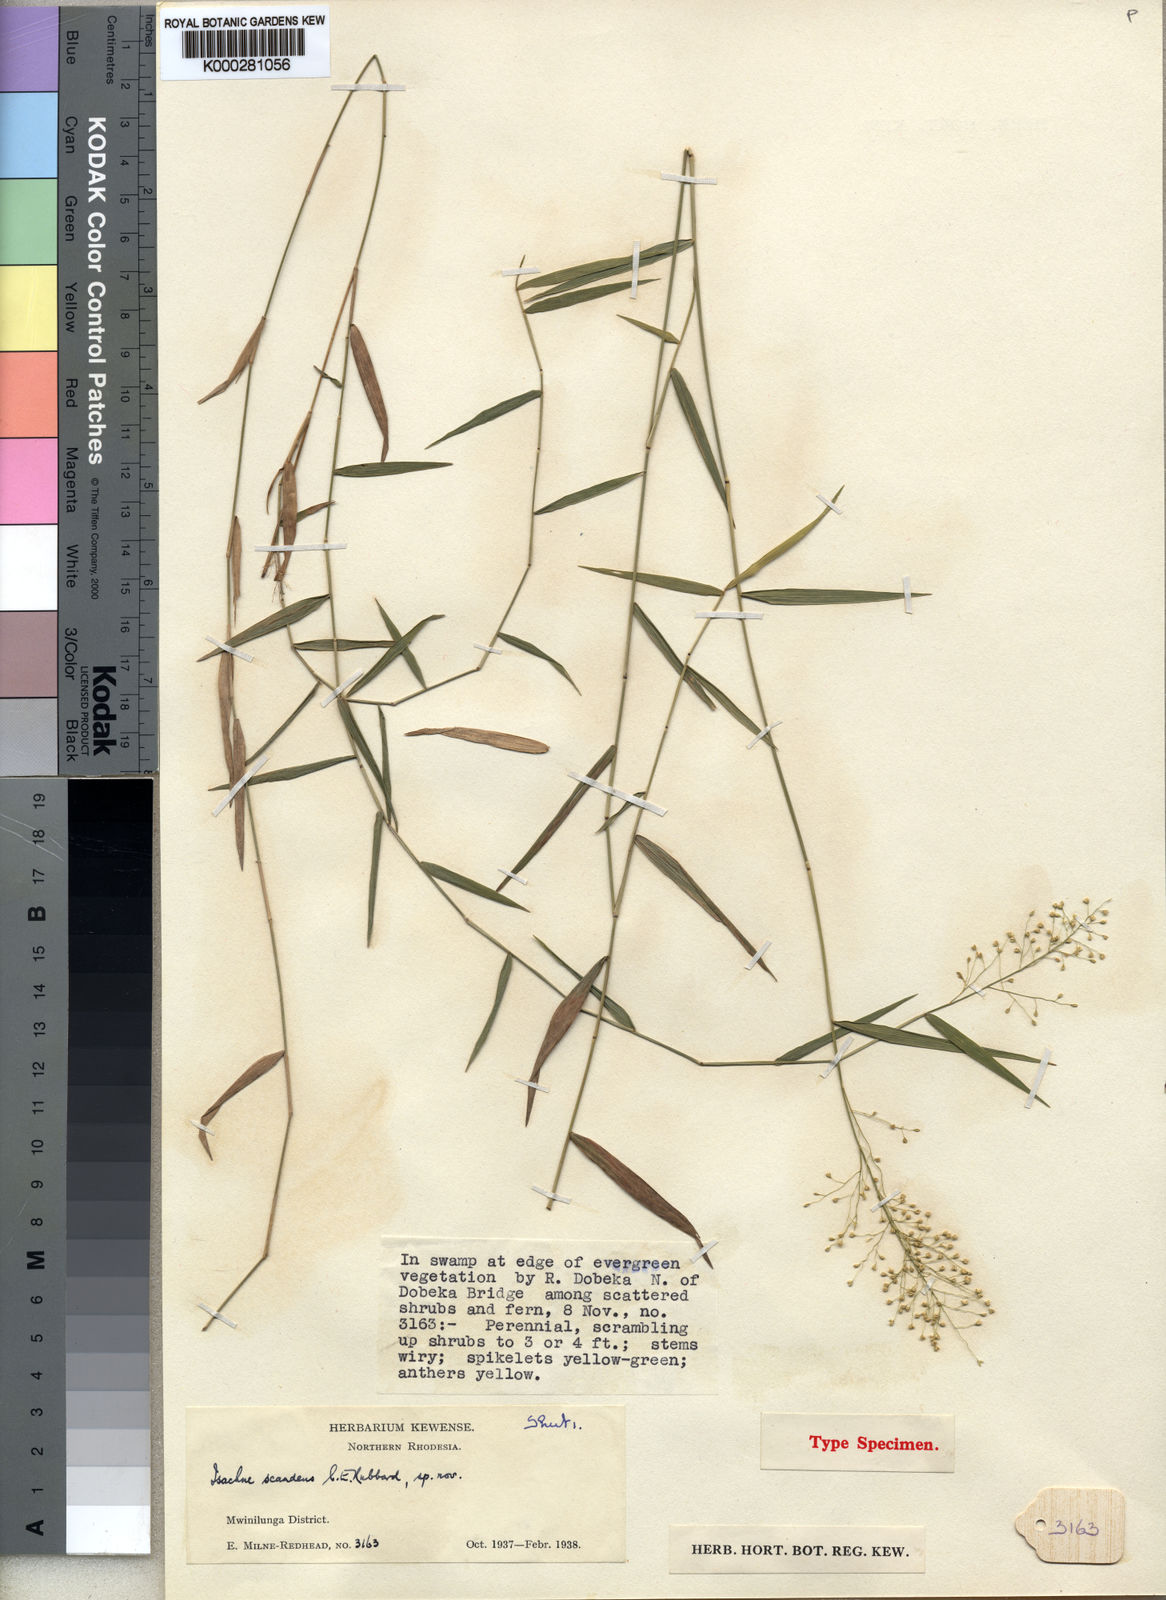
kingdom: Plantae
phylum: Tracheophyta
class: Liliopsida
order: Poales
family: Poaceae
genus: Isachne
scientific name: Isachne
